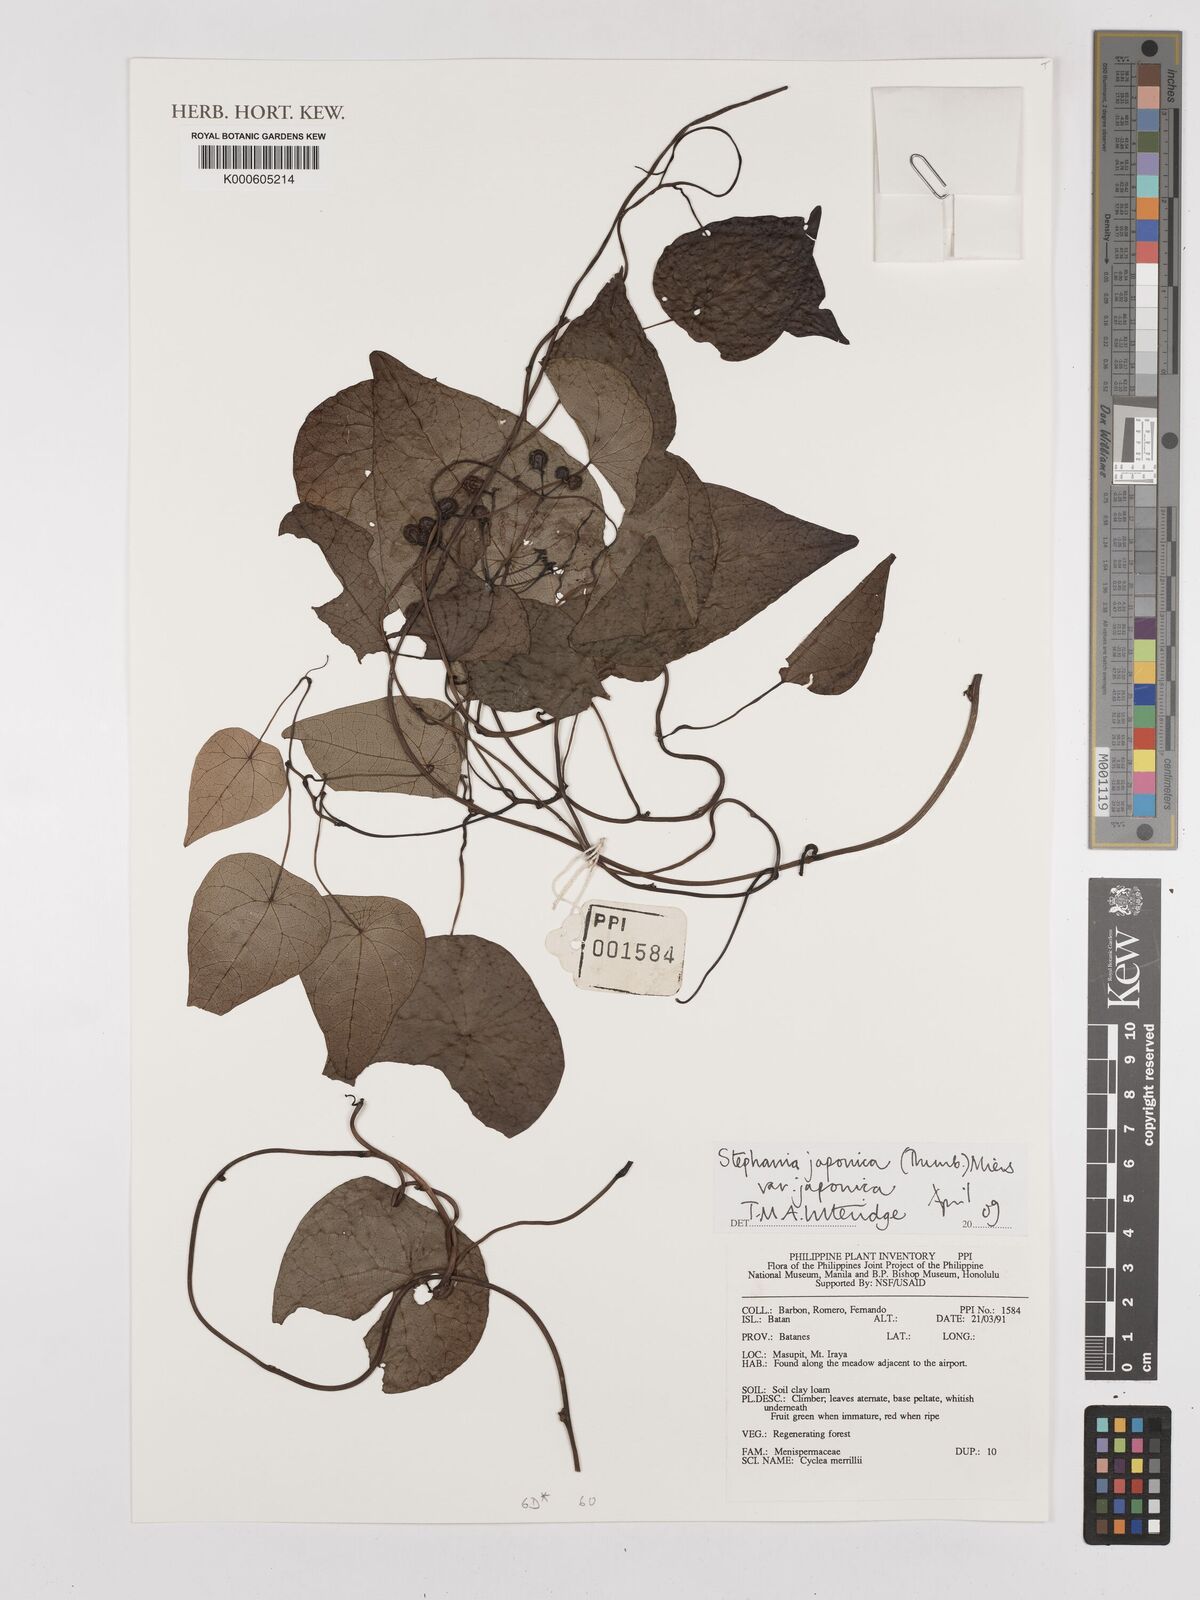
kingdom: Plantae
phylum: Tracheophyta
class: Magnoliopsida
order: Ranunculales
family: Menispermaceae
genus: Stephania
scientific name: Stephania japonica
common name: Snake vine
